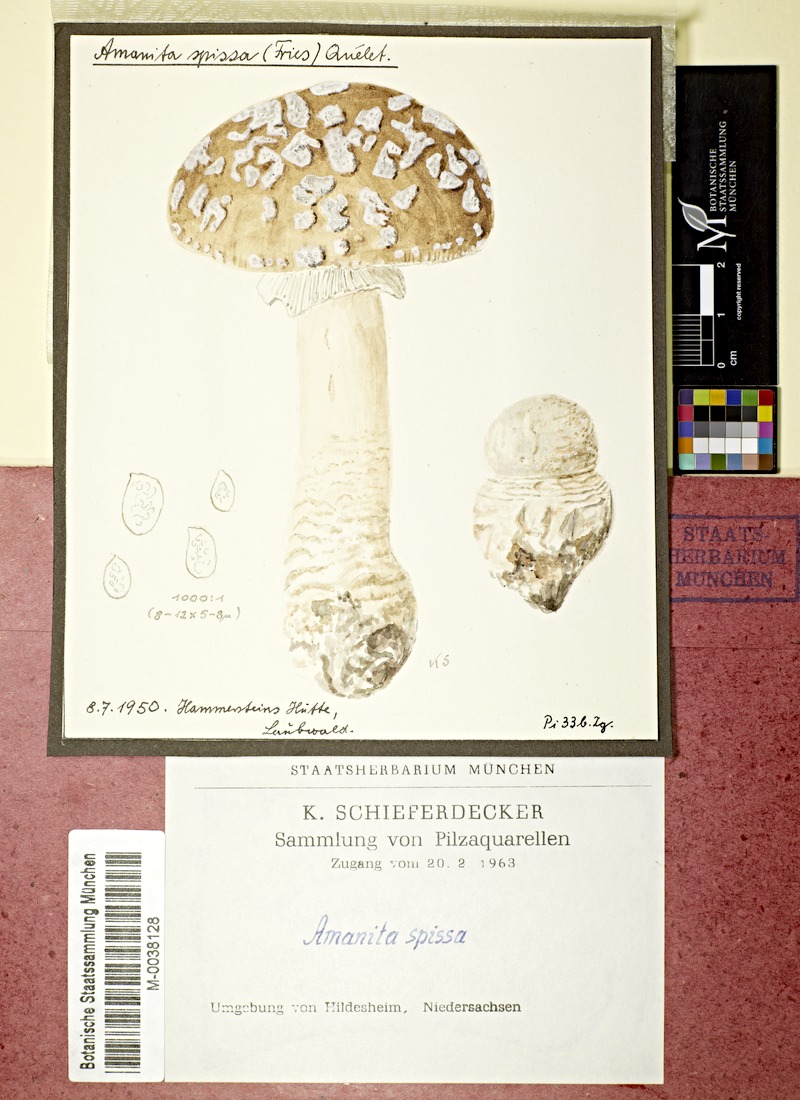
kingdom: Fungi
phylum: Basidiomycota
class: Agaricomycetes
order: Agaricales
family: Amanitaceae
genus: Amanita
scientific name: Amanita excelsa
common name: European false blusher
